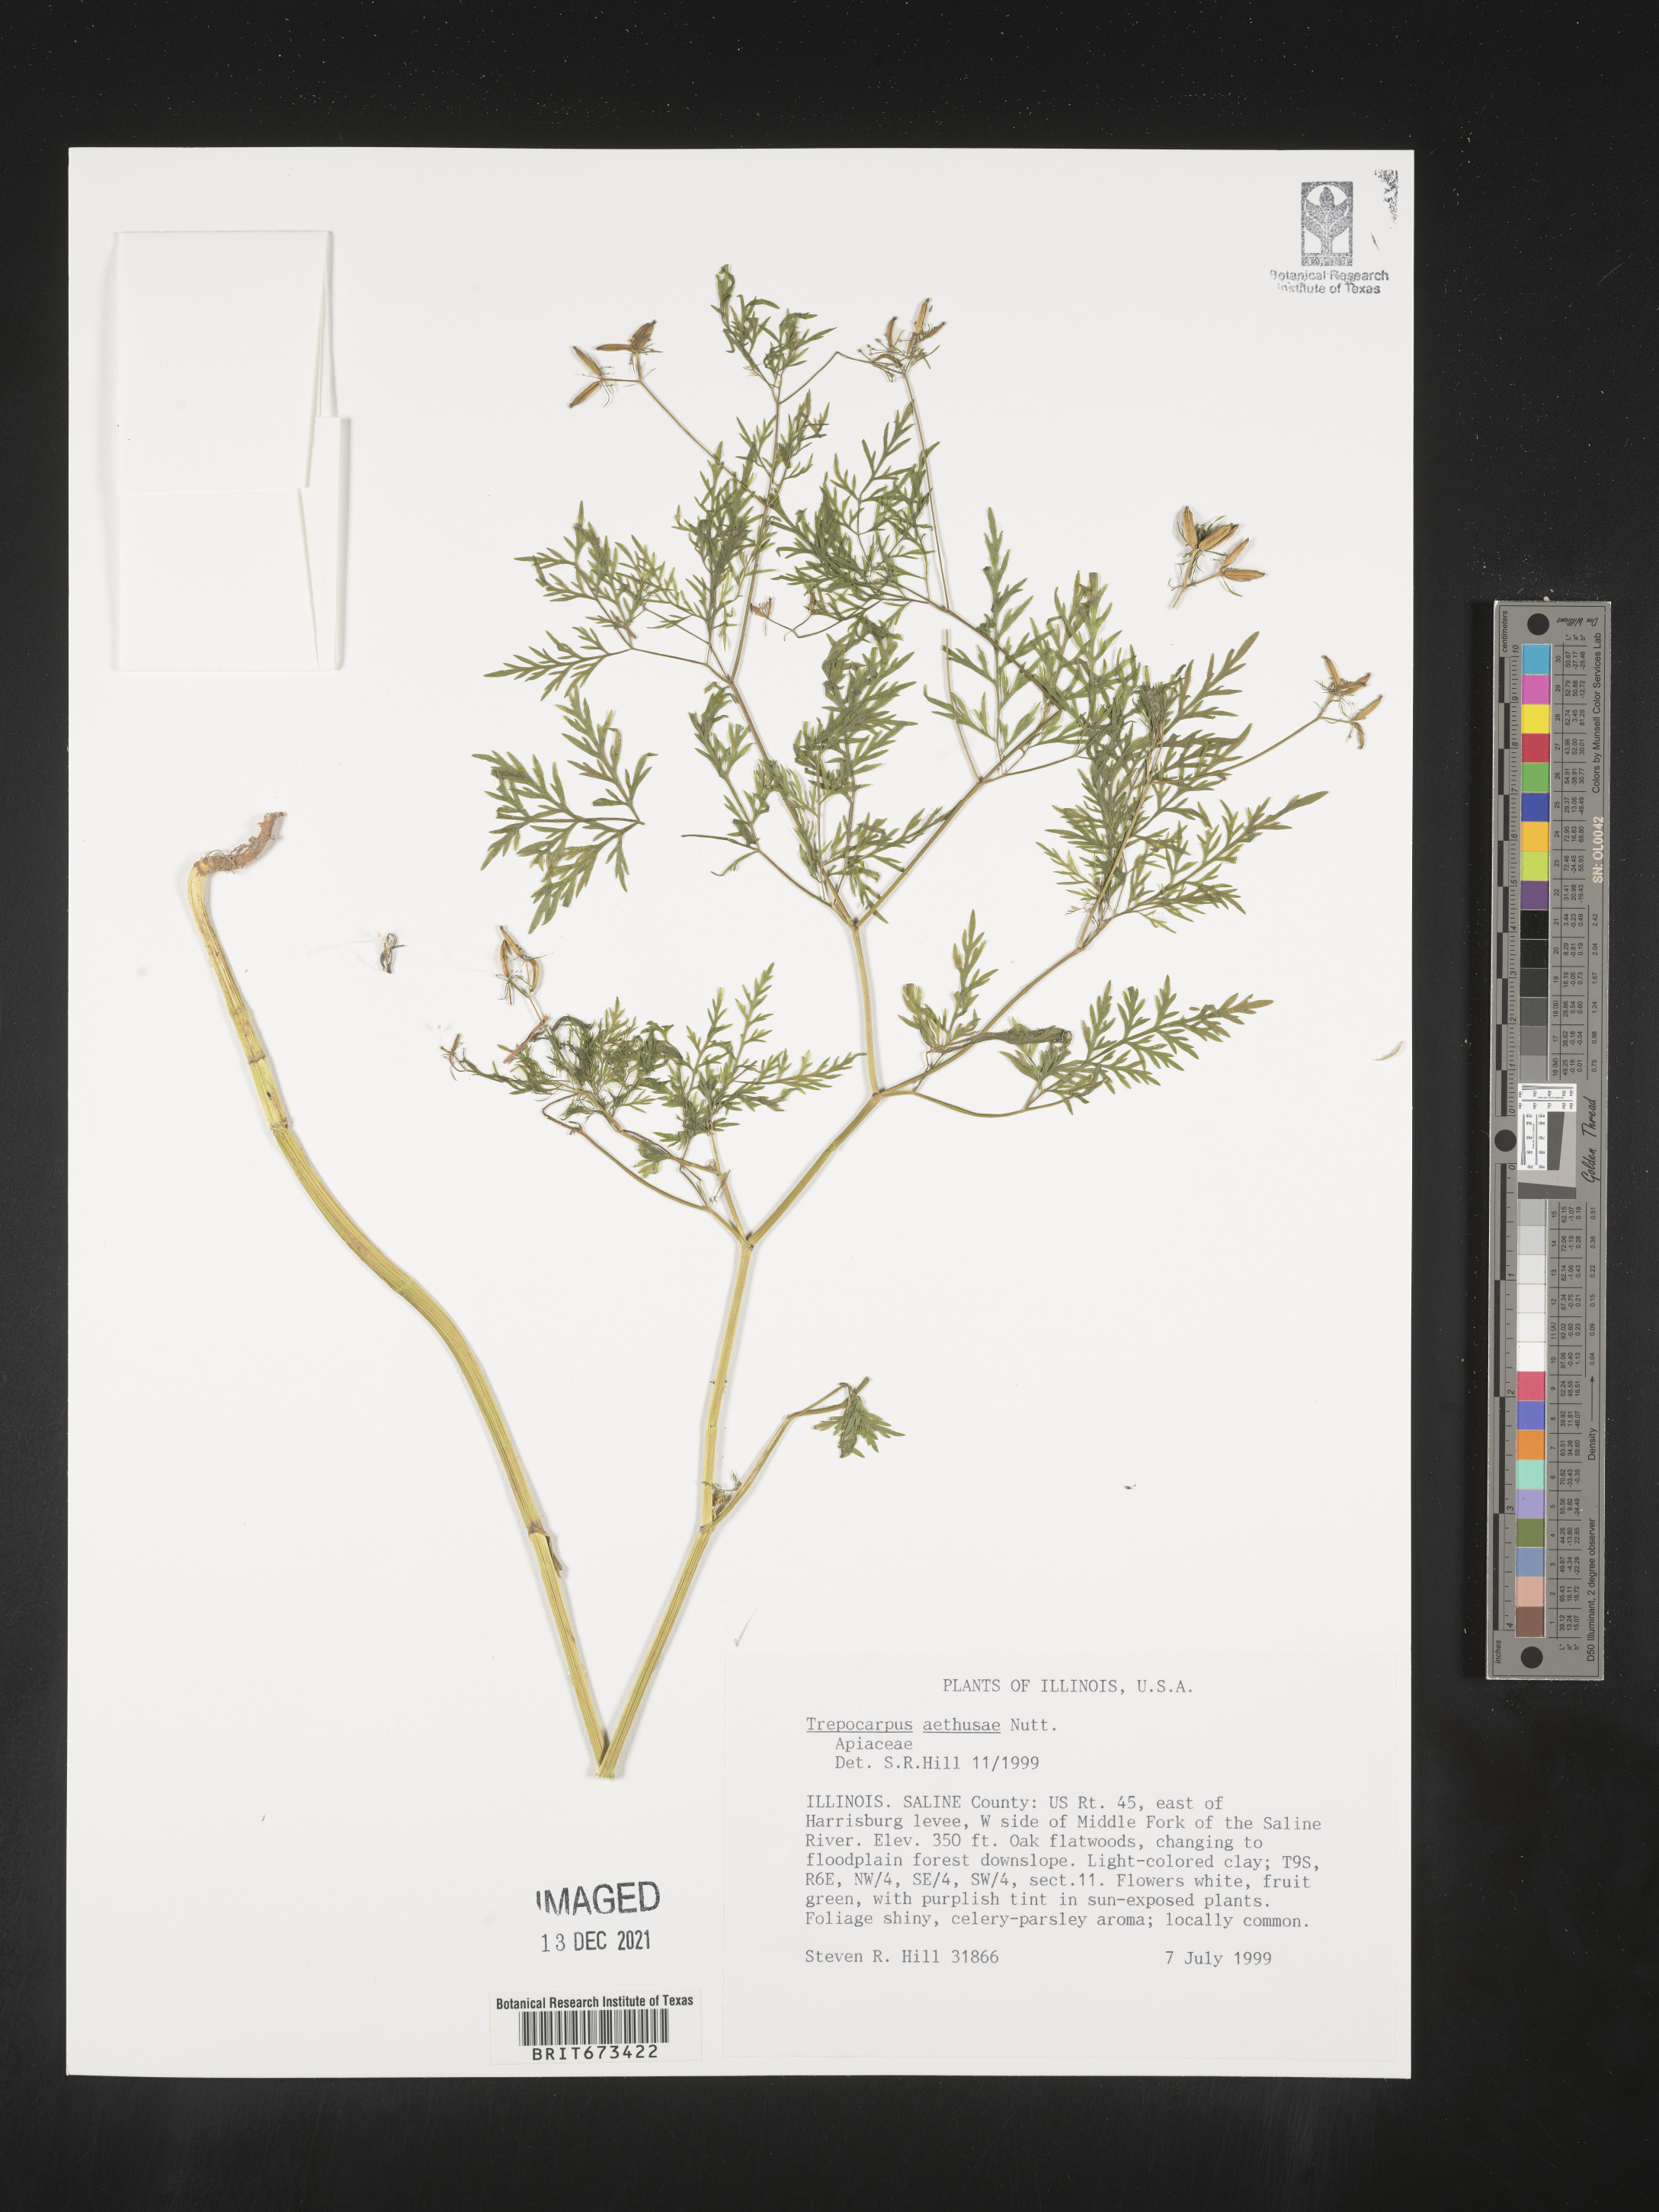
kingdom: Plantae
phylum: Tracheophyta
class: Magnoliopsida
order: Apiales
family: Apiaceae
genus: Trepocarpus
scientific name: Trepocarpus aethusae
